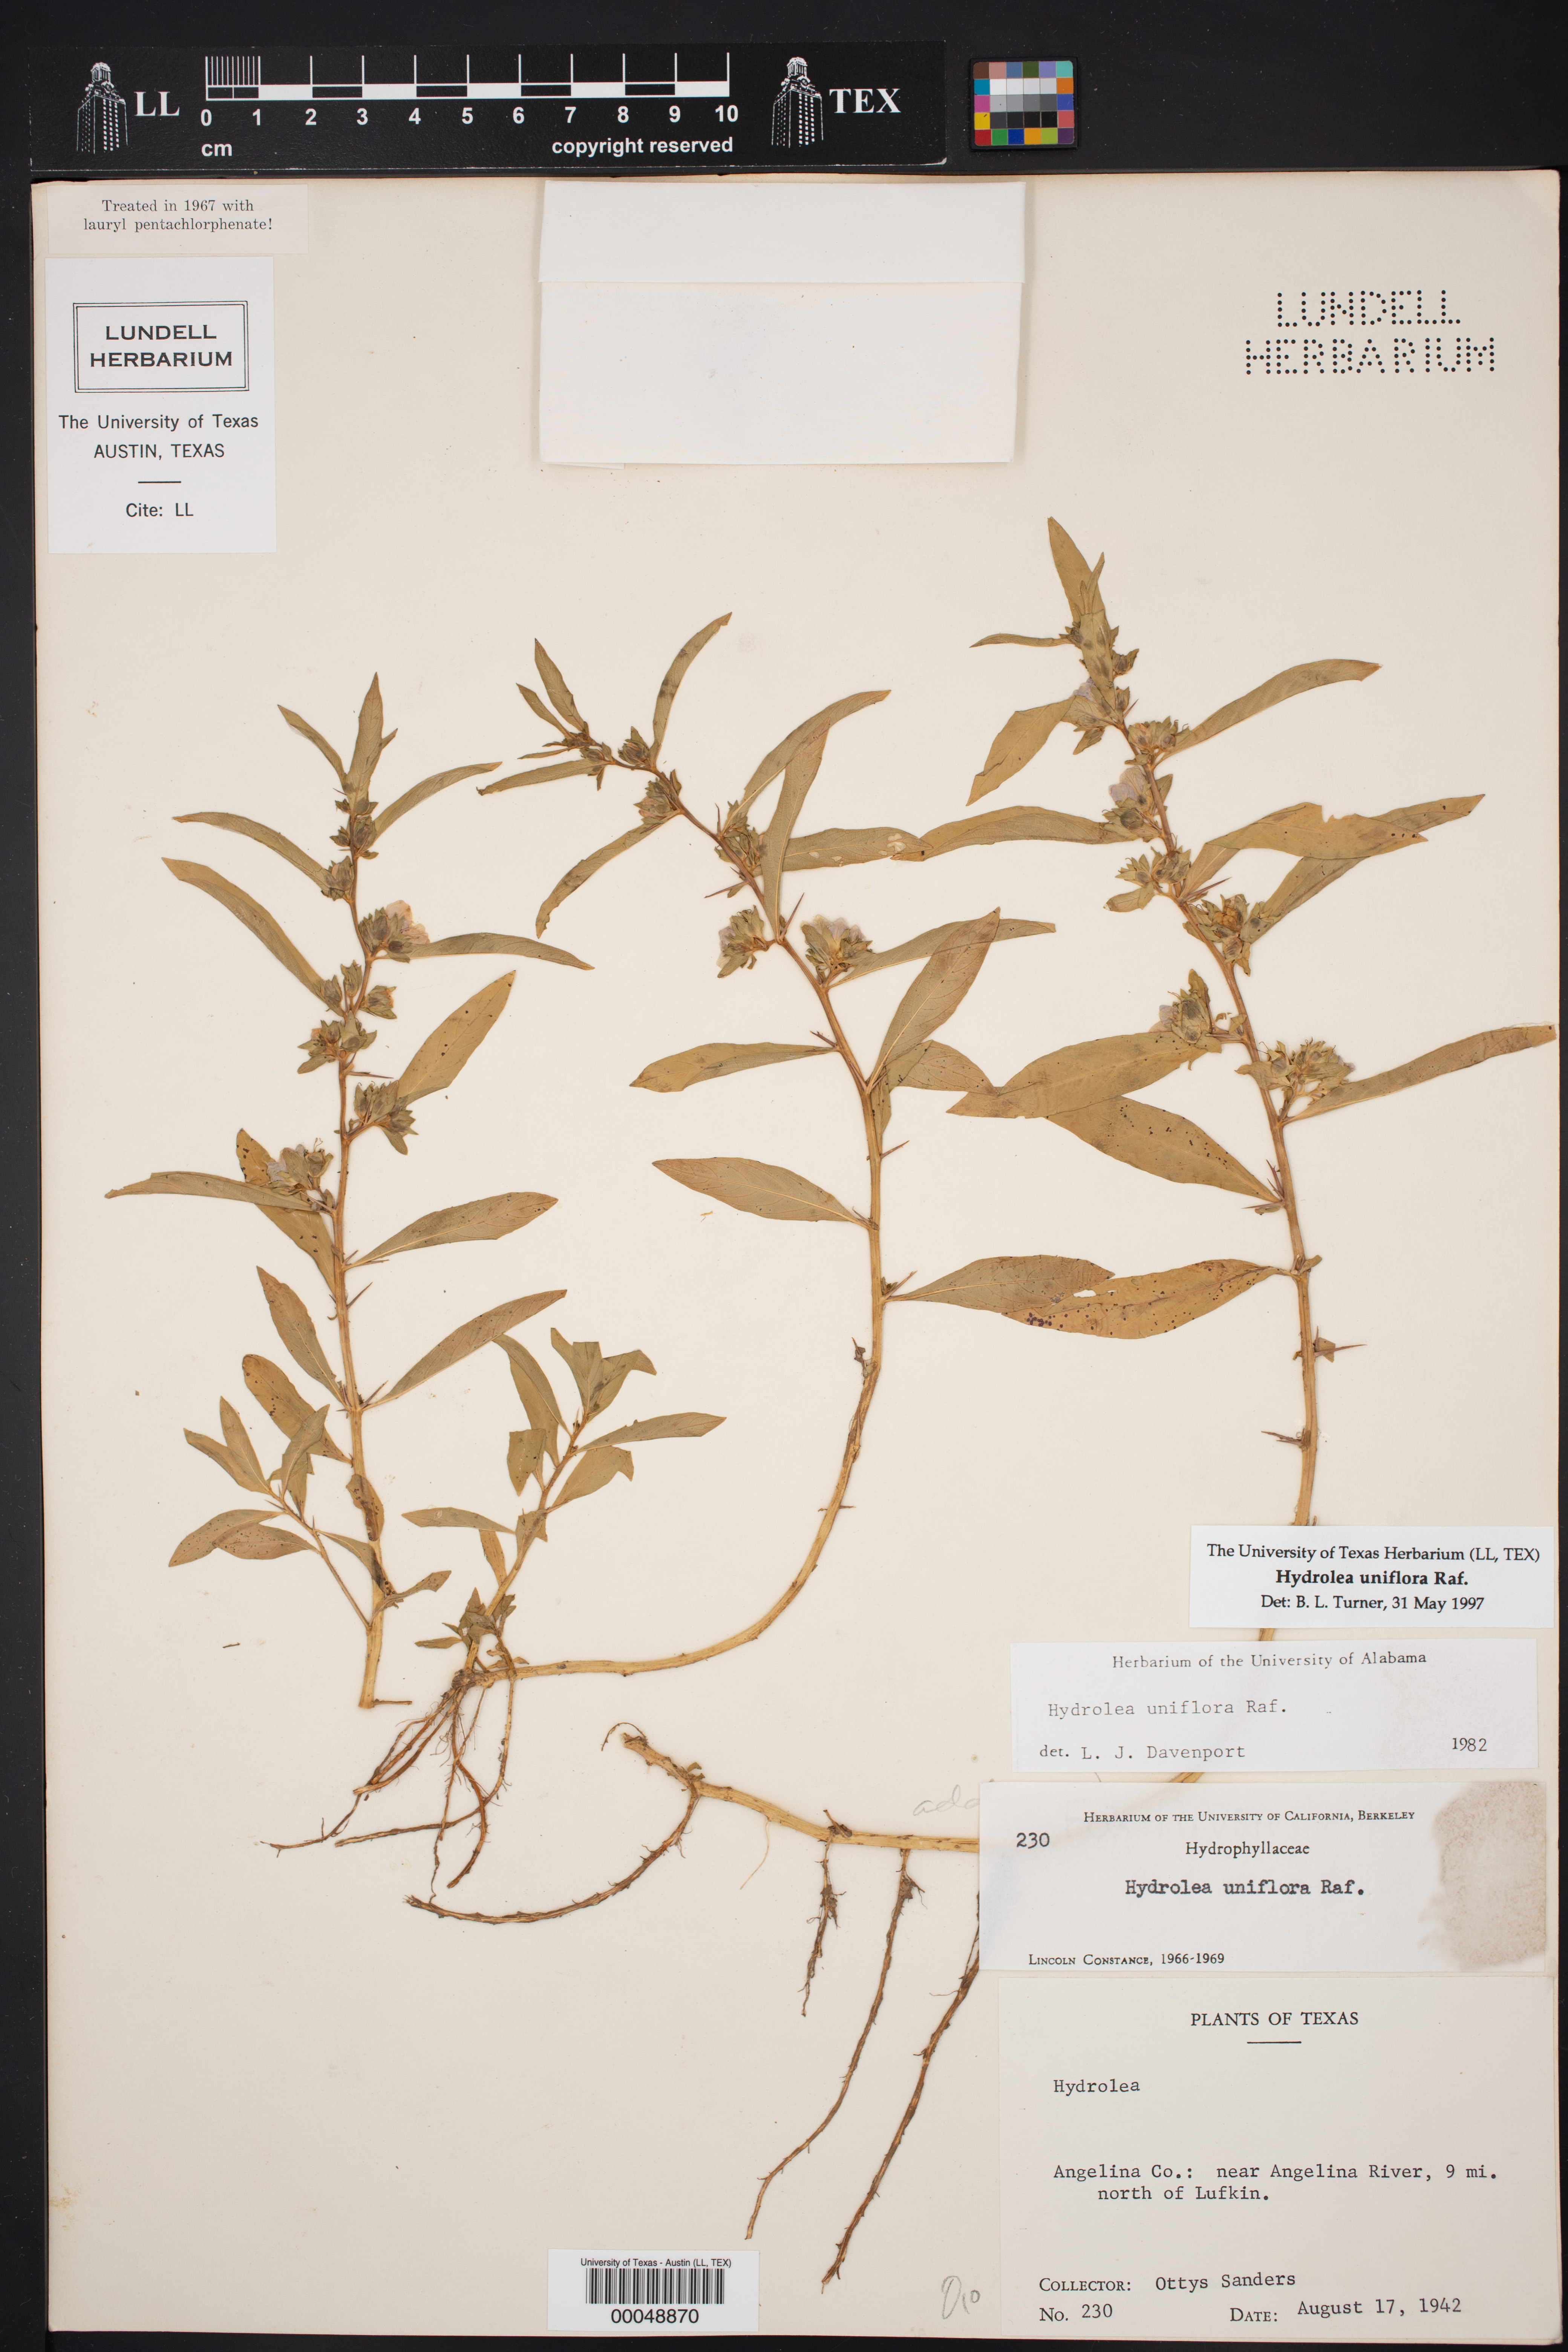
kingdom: Plantae
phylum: Tracheophyta
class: Magnoliopsida
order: Solanales
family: Hydroleaceae
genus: Hydrolea
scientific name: Hydrolea uniflora
